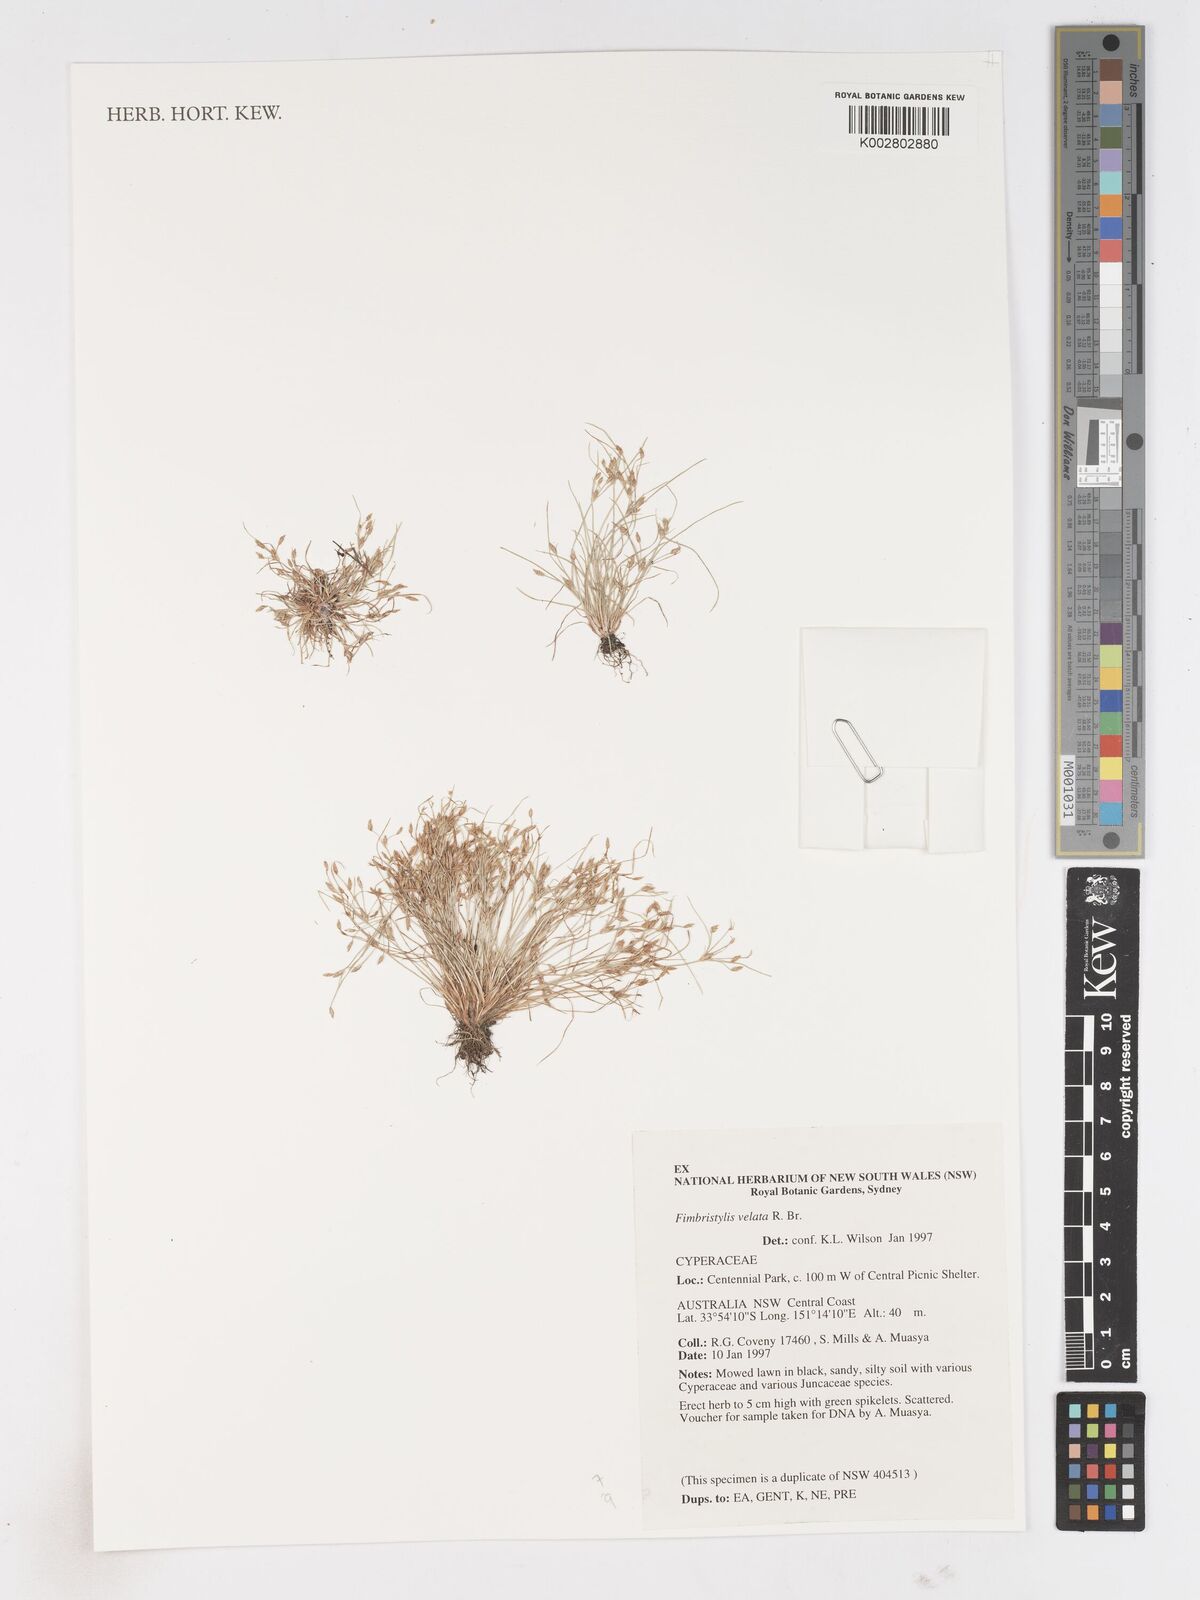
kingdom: Plantae
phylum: Tracheophyta
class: Liliopsida
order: Poales
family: Cyperaceae
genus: Fimbristylis
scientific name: Fimbristylis velata
